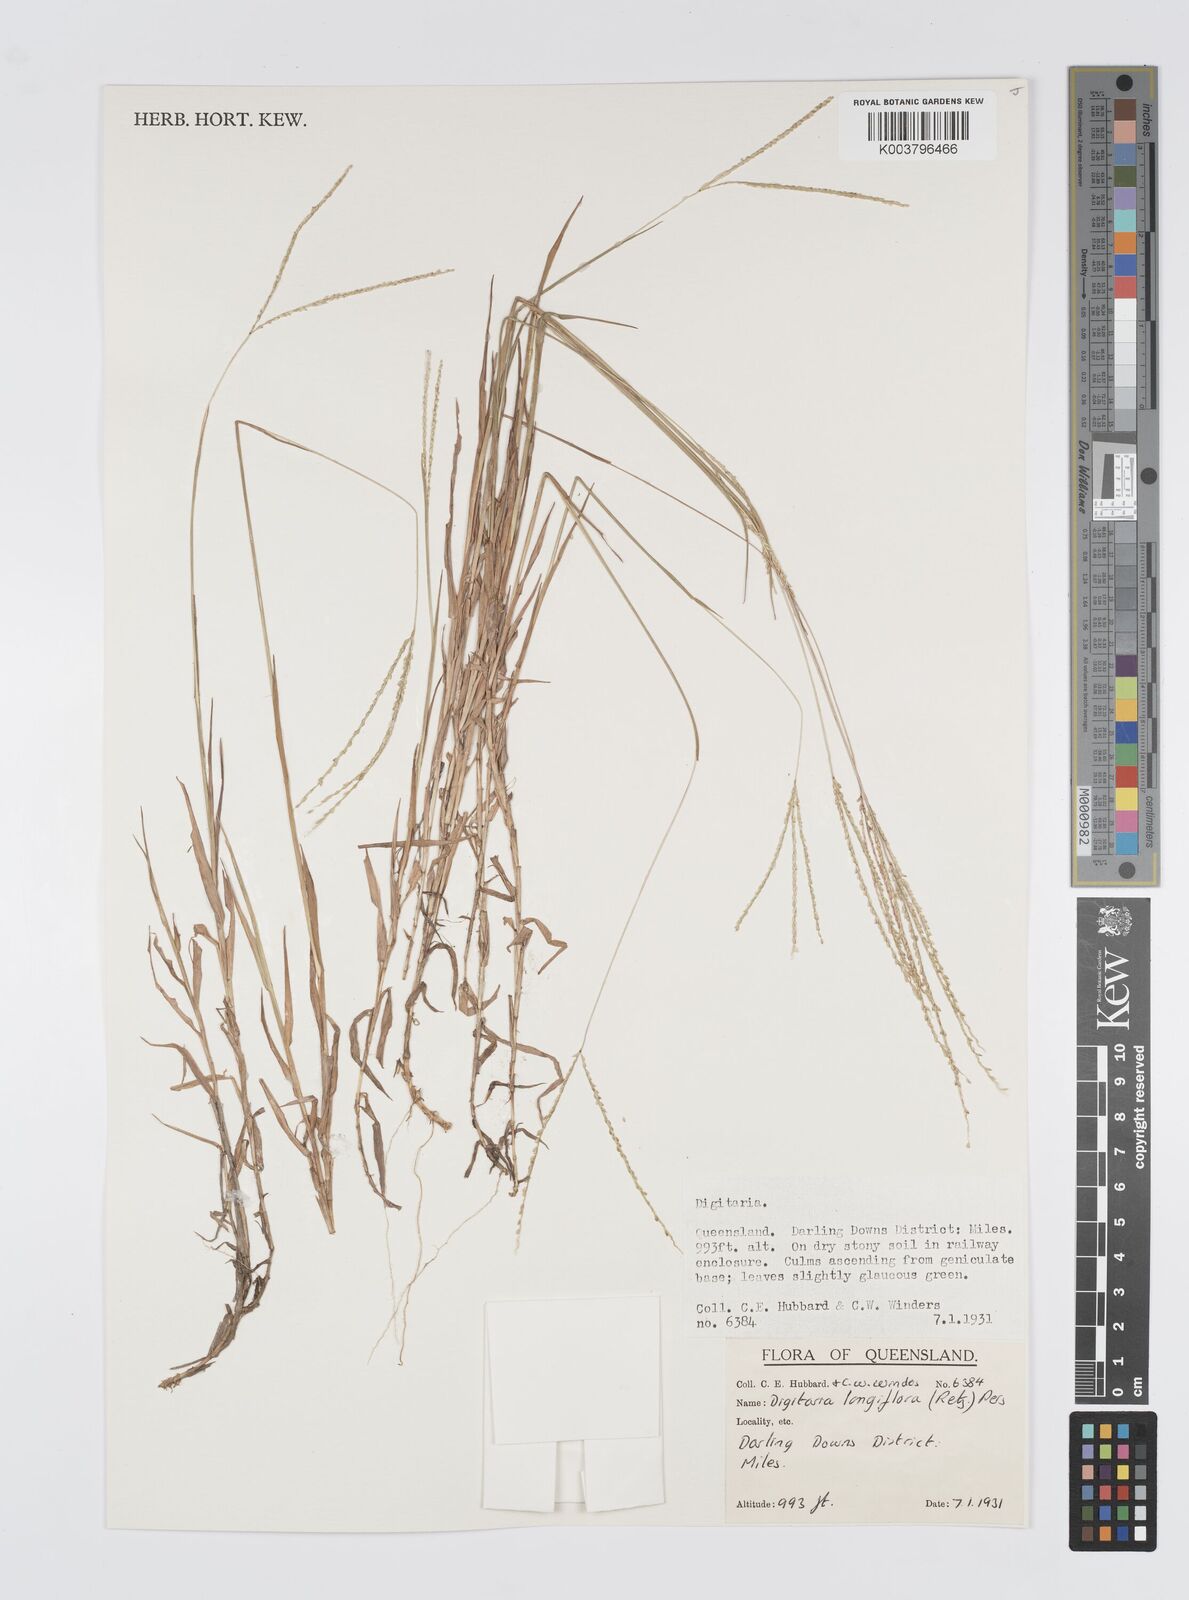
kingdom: Plantae
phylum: Tracheophyta
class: Liliopsida
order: Poales
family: Poaceae
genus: Digitaria
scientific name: Digitaria longiflora
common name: Wire crabgrass
